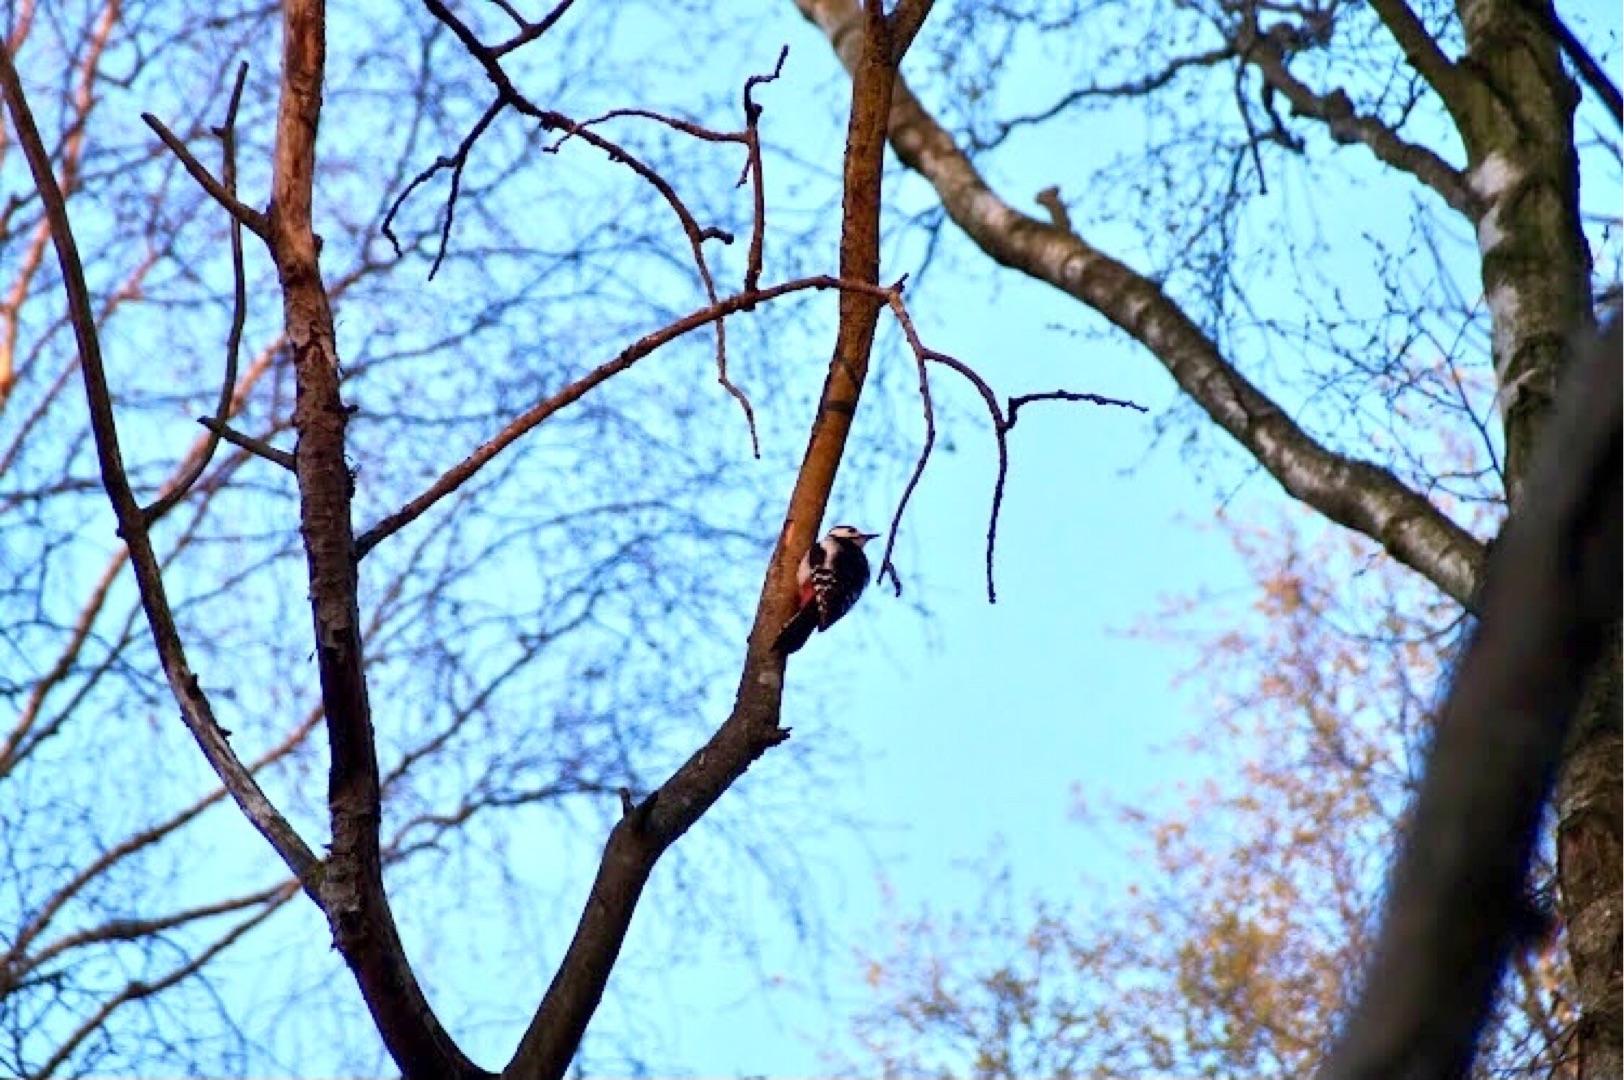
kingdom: Animalia
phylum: Chordata
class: Aves
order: Piciformes
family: Picidae
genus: Dendrocopos
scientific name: Dendrocopos major
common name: Stor flagspætte
